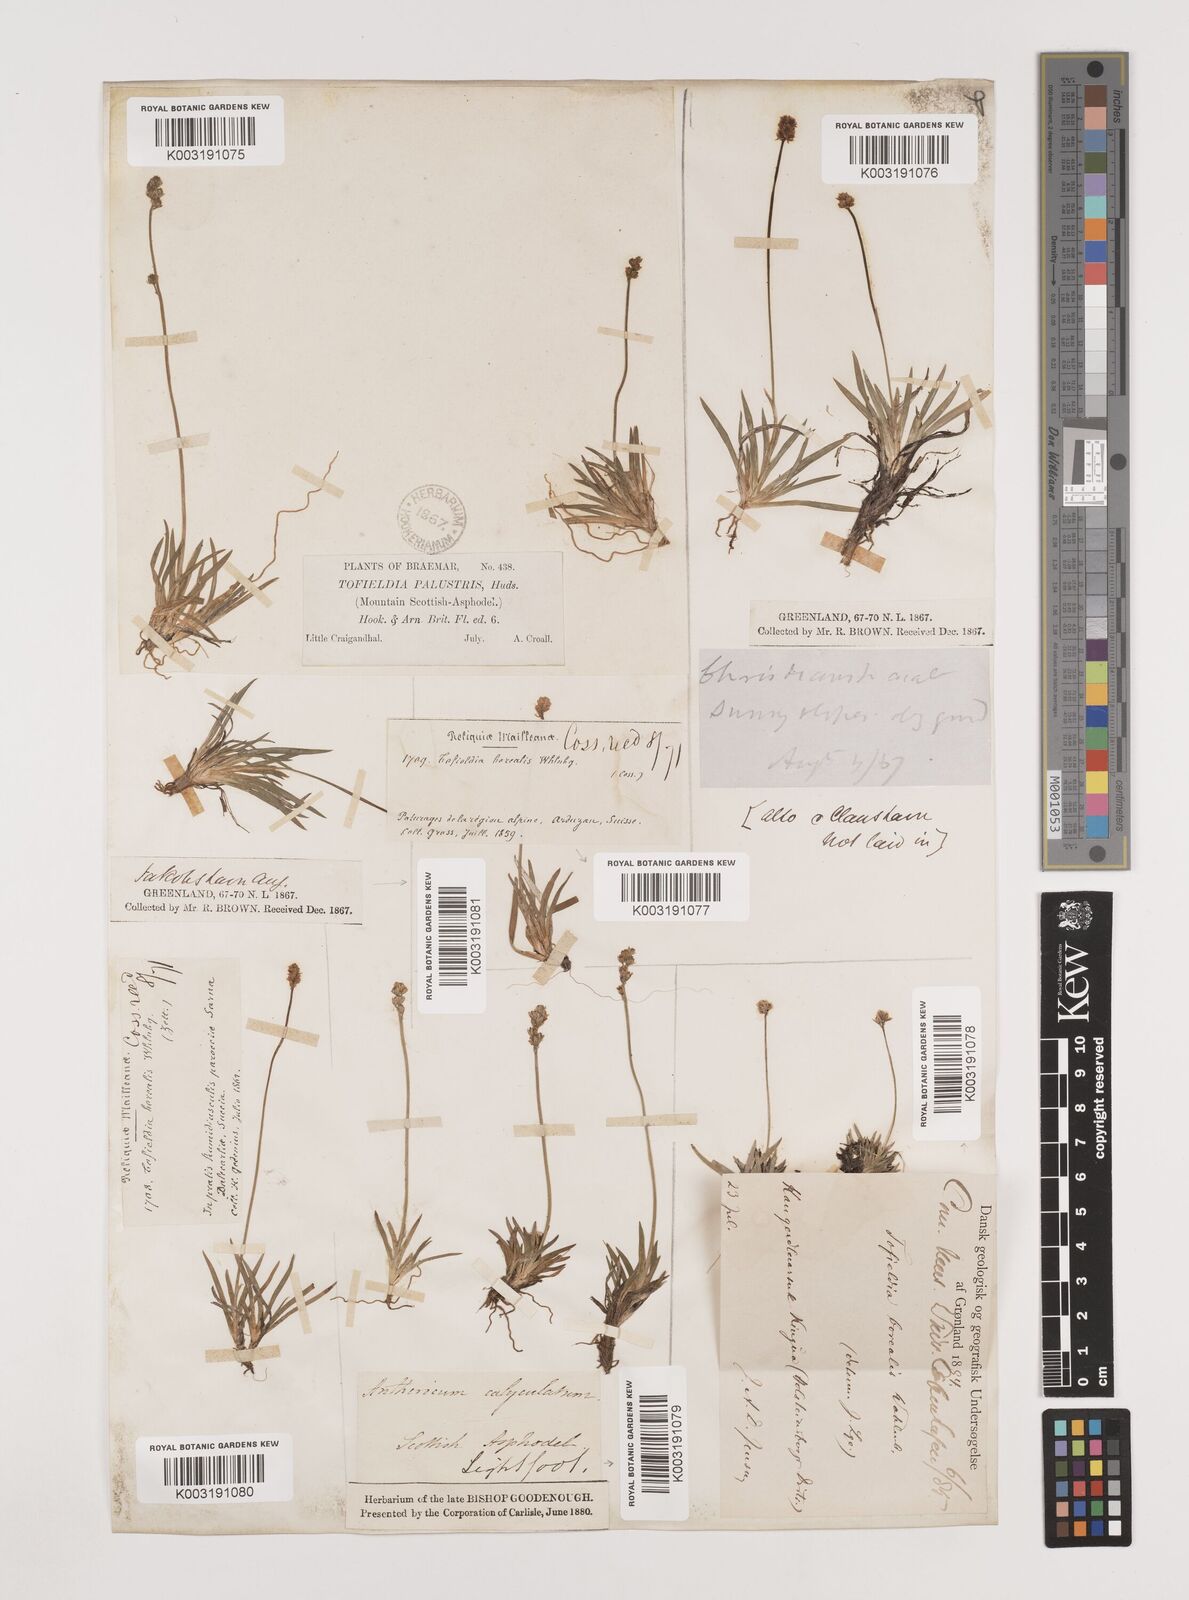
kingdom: Plantae
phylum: Tracheophyta
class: Liliopsida
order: Alismatales
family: Tofieldiaceae
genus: Tofieldia
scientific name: Tofieldia pusilla
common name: Scottish false asphodel
